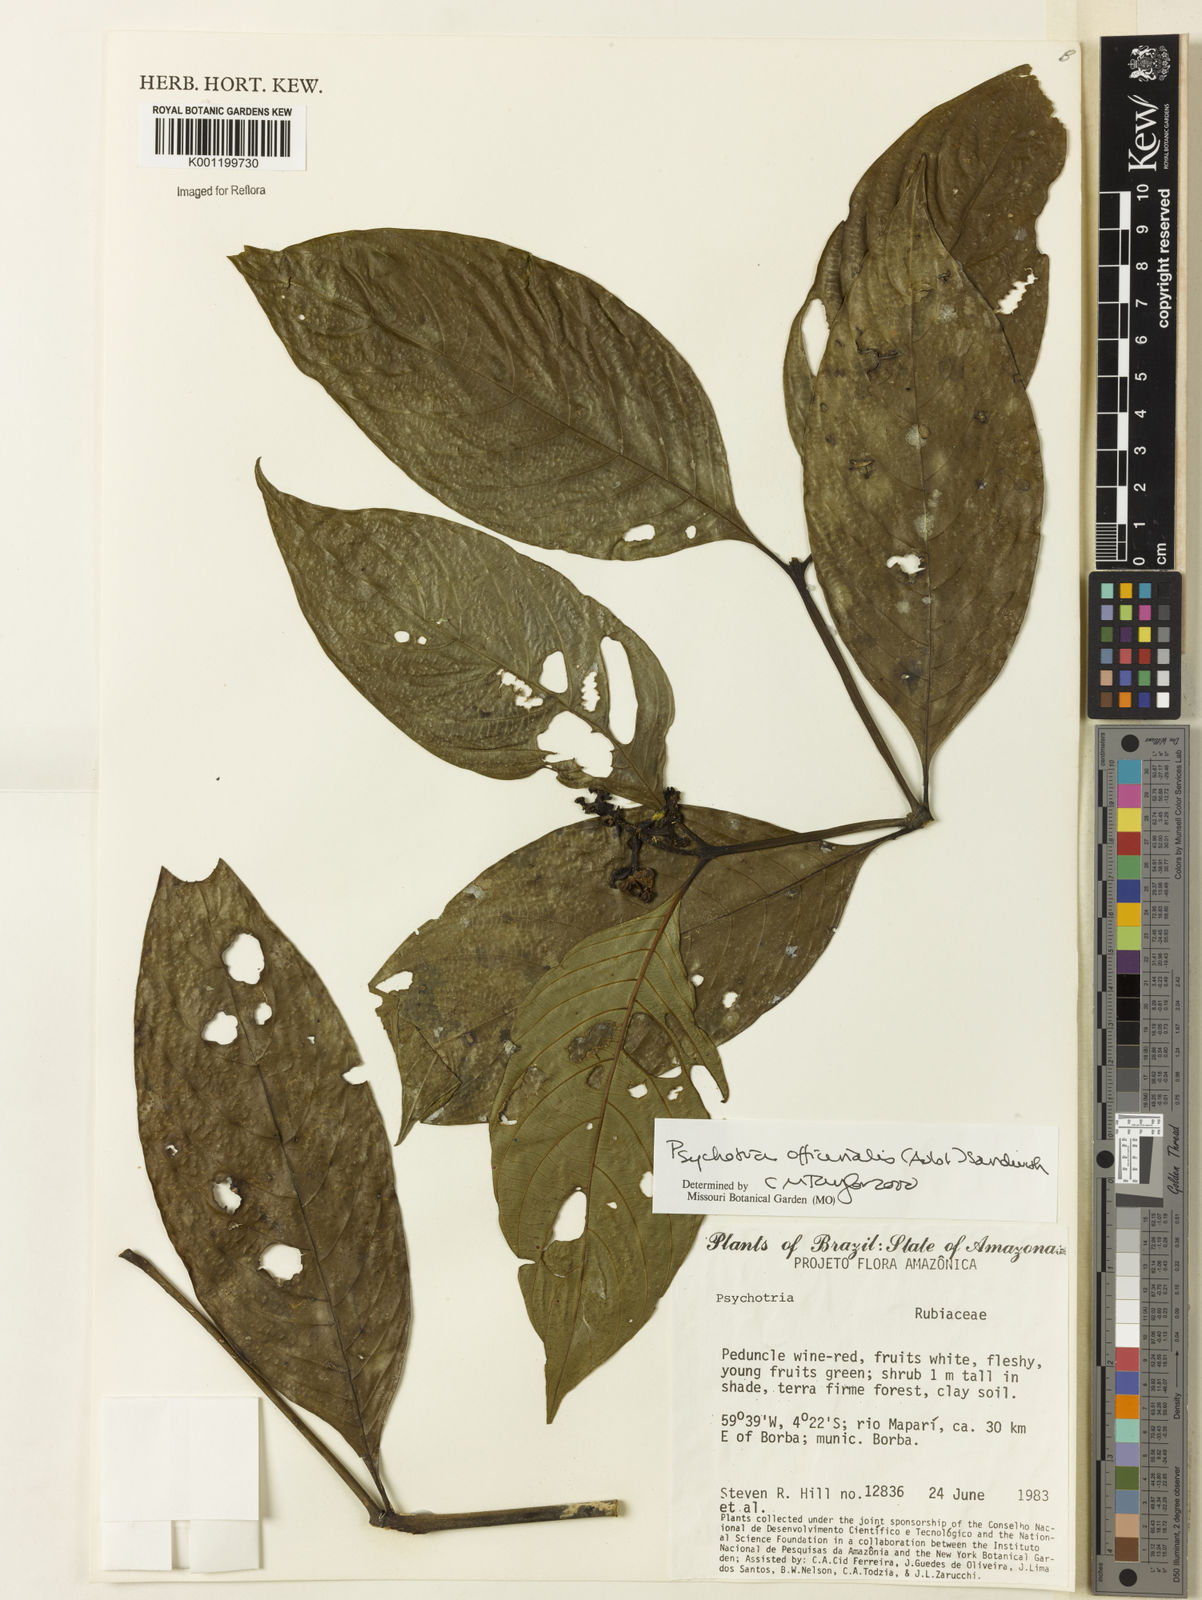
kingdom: Plantae
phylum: Tracheophyta
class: Magnoliopsida
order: Gentianales
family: Rubiaceae
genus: Psychotria
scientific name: Psychotria
